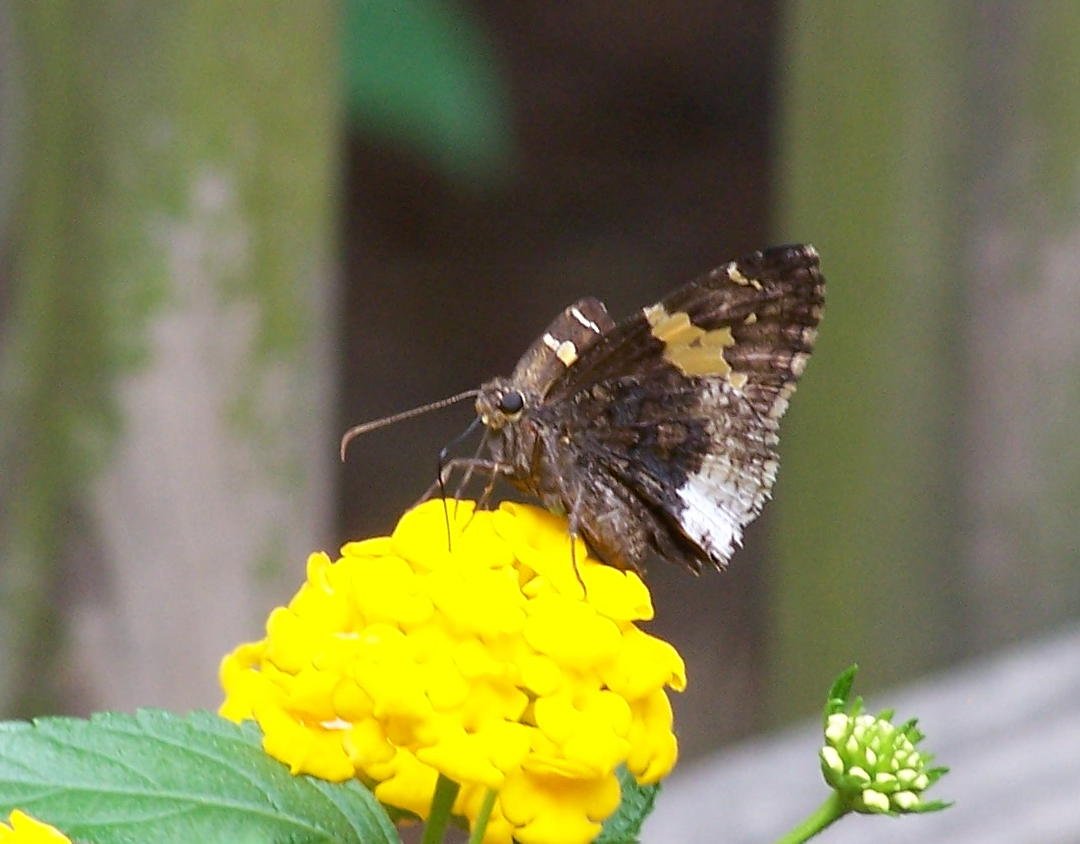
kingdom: Animalia
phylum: Arthropoda
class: Insecta
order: Lepidoptera
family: Hesperiidae
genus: Achalarus
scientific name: Achalarus lyciades
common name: Hoary Edge
